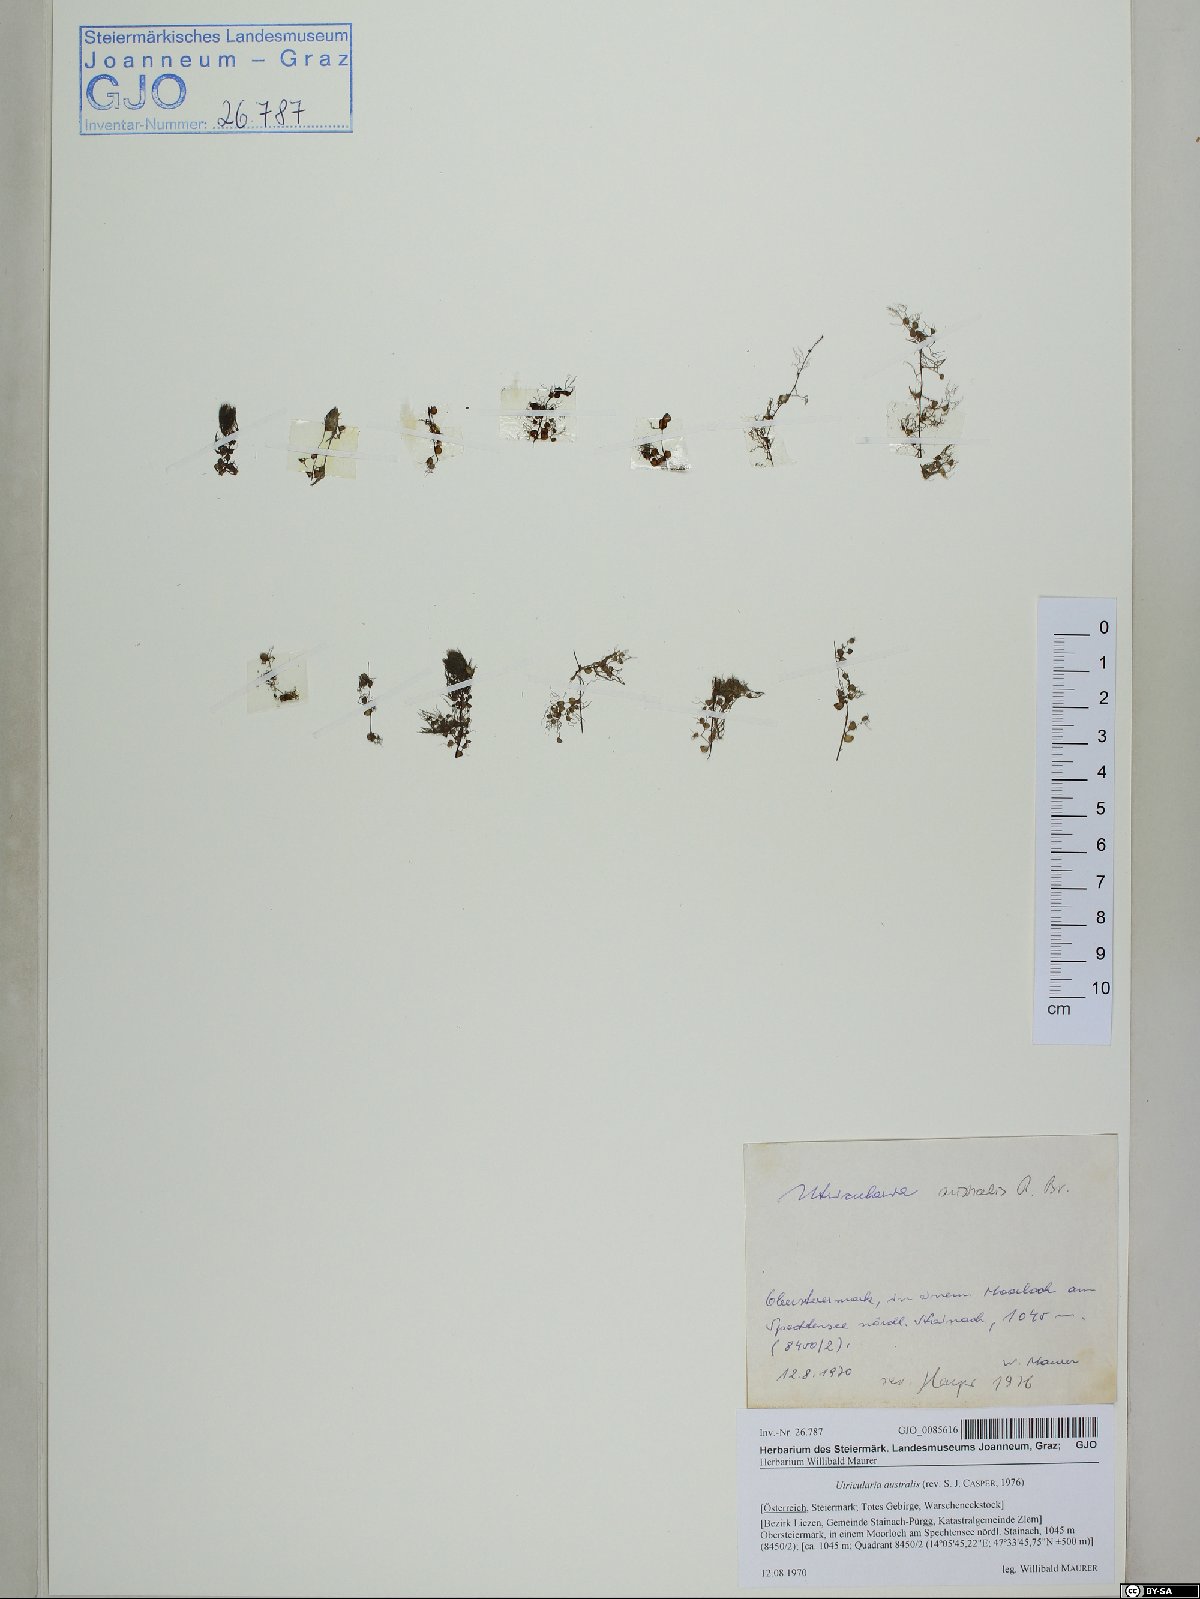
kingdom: Plantae
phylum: Tracheophyta
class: Magnoliopsida
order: Lamiales
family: Lentibulariaceae
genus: Utricularia
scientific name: Utricularia australis
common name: Bladderwort
